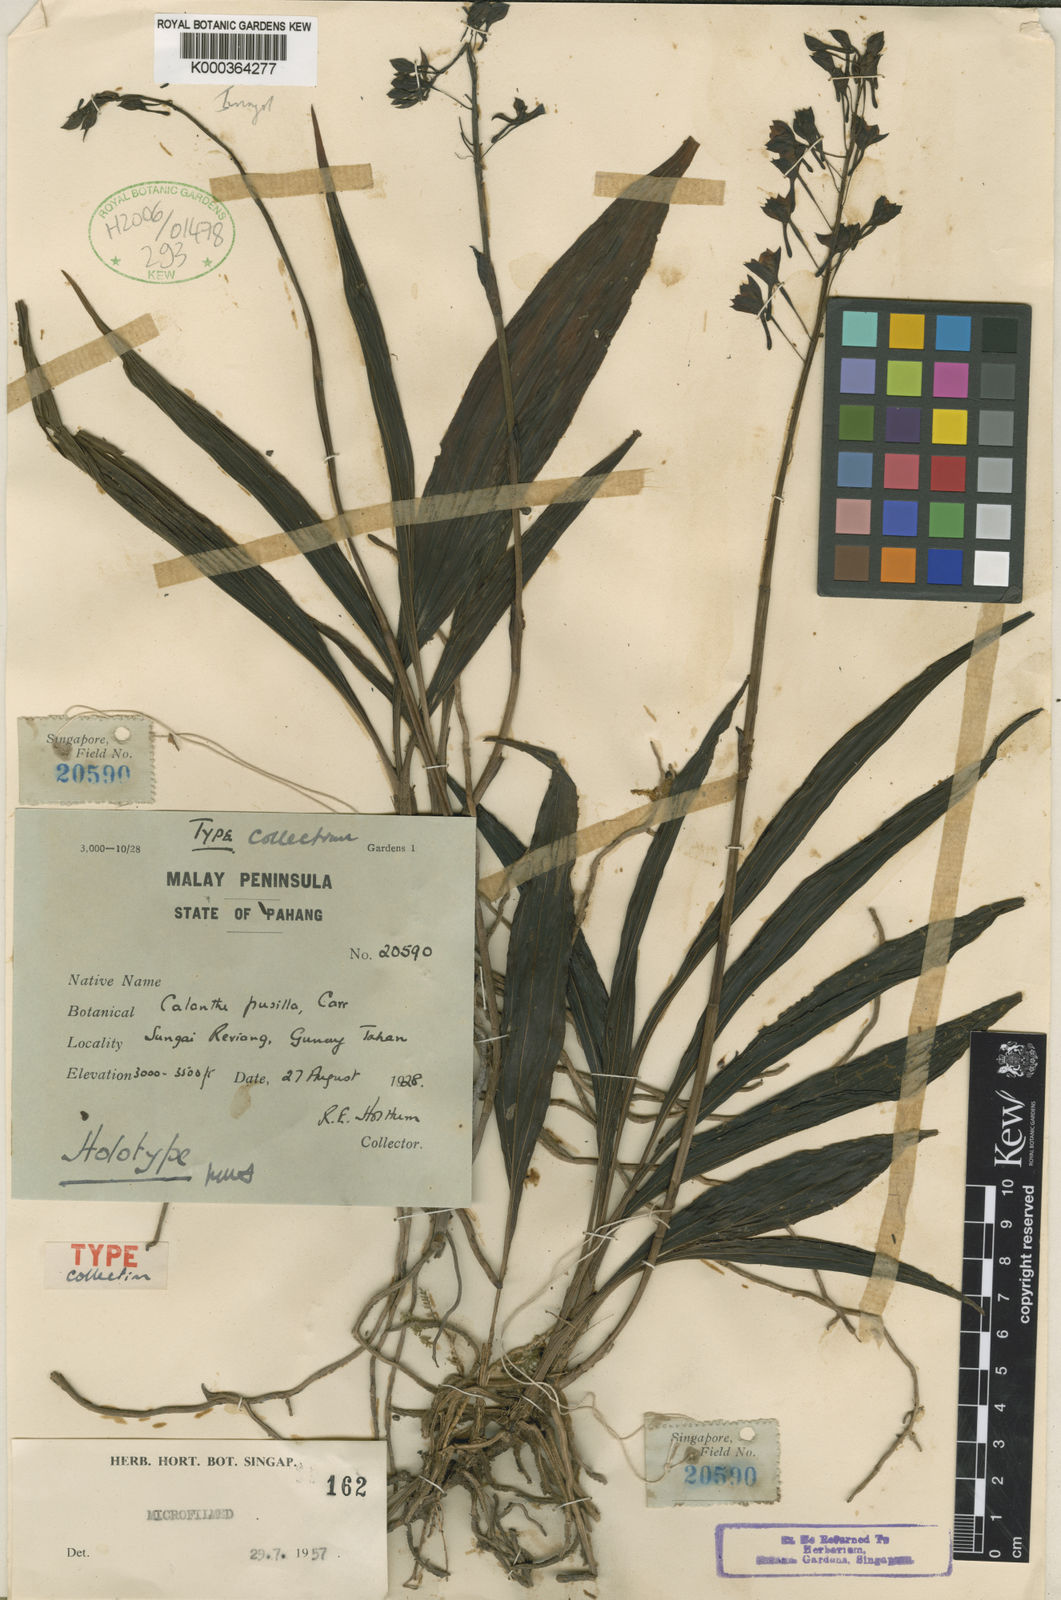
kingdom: Plantae
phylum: Tracheophyta
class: Liliopsida
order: Asparagales
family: Orchidaceae
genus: Calanthe
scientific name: Calanthe carrii
